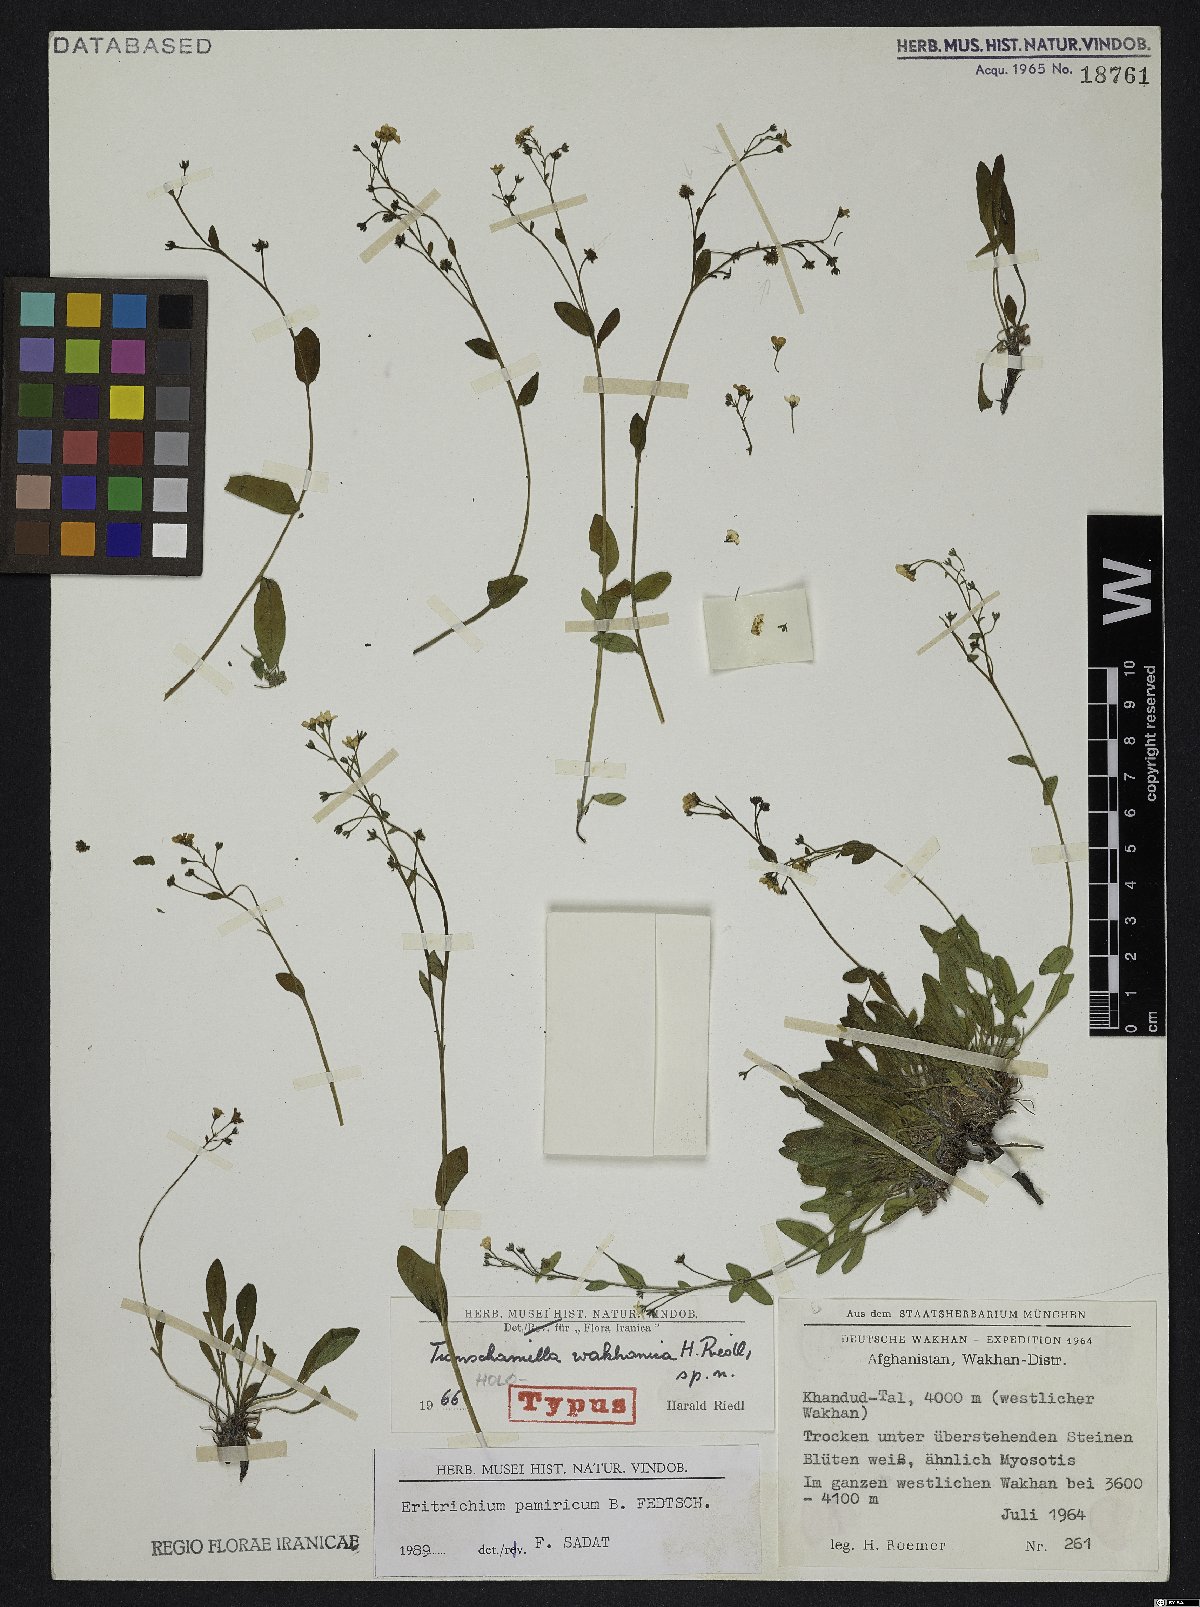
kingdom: Plantae
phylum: Tracheophyta
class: Magnoliopsida
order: Boraginales
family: Boraginaceae
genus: Eritrichium
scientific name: Eritrichium pamiricum
